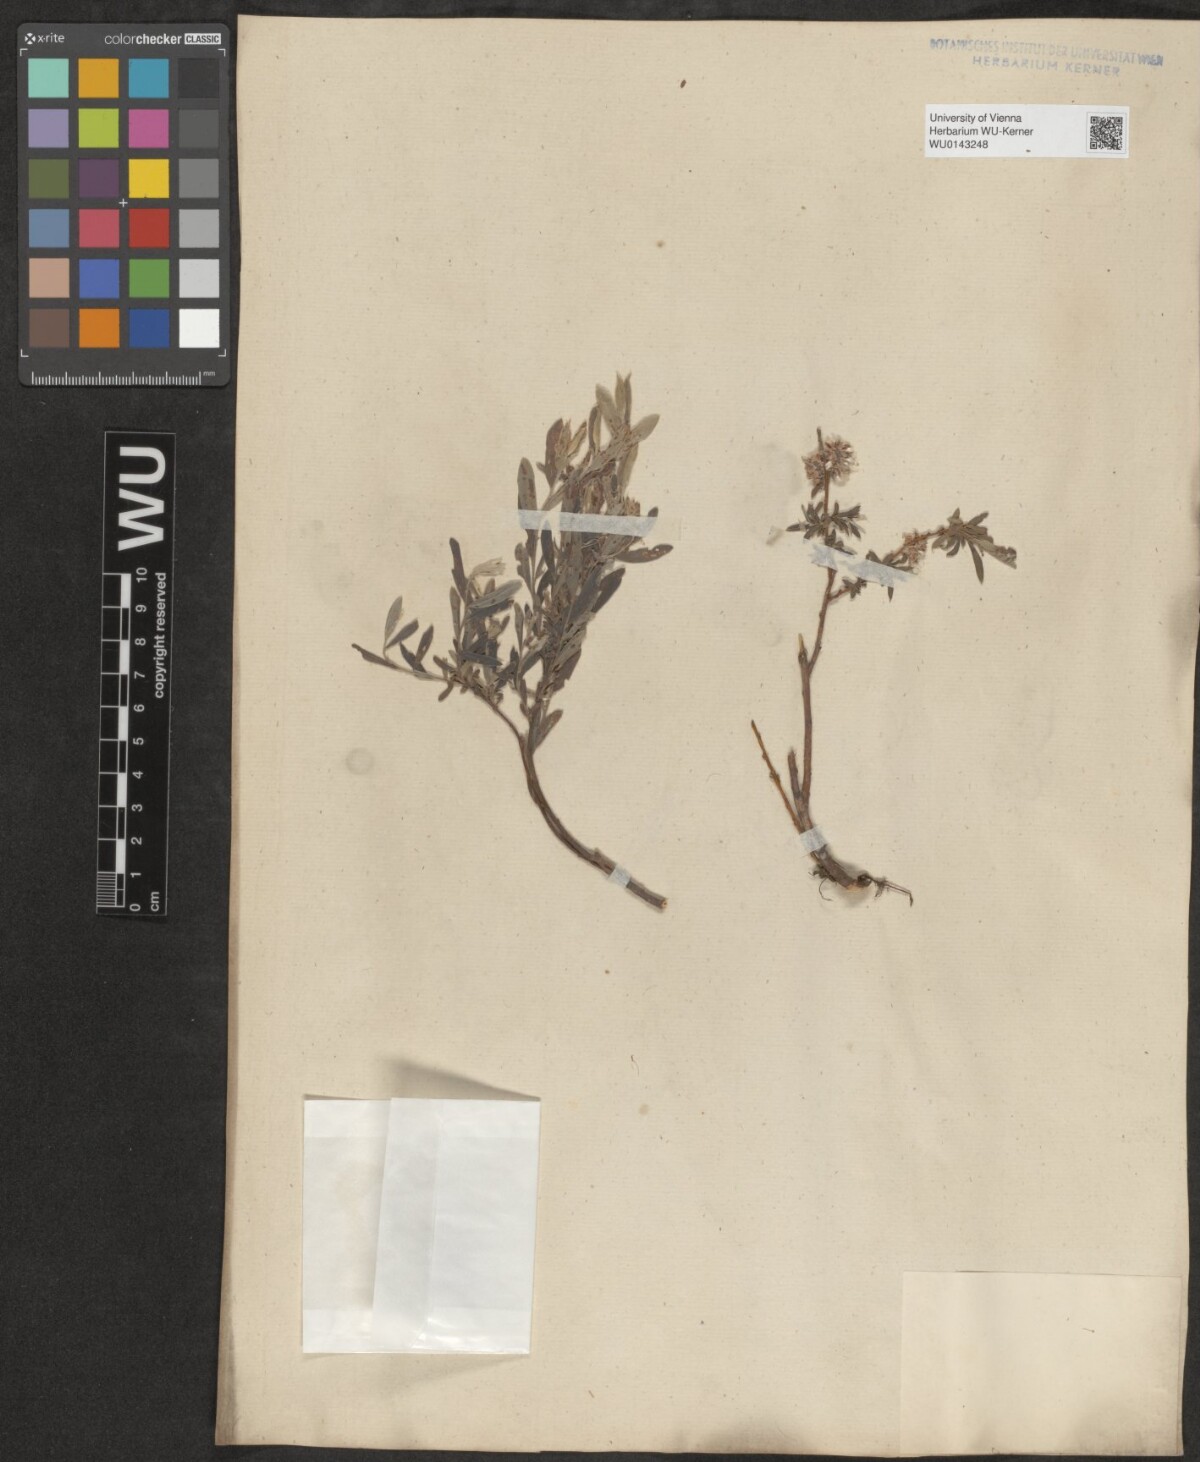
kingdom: Plantae
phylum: Tracheophyta
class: Magnoliopsida
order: Malpighiales
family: Salicaceae
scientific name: Salicaceae
